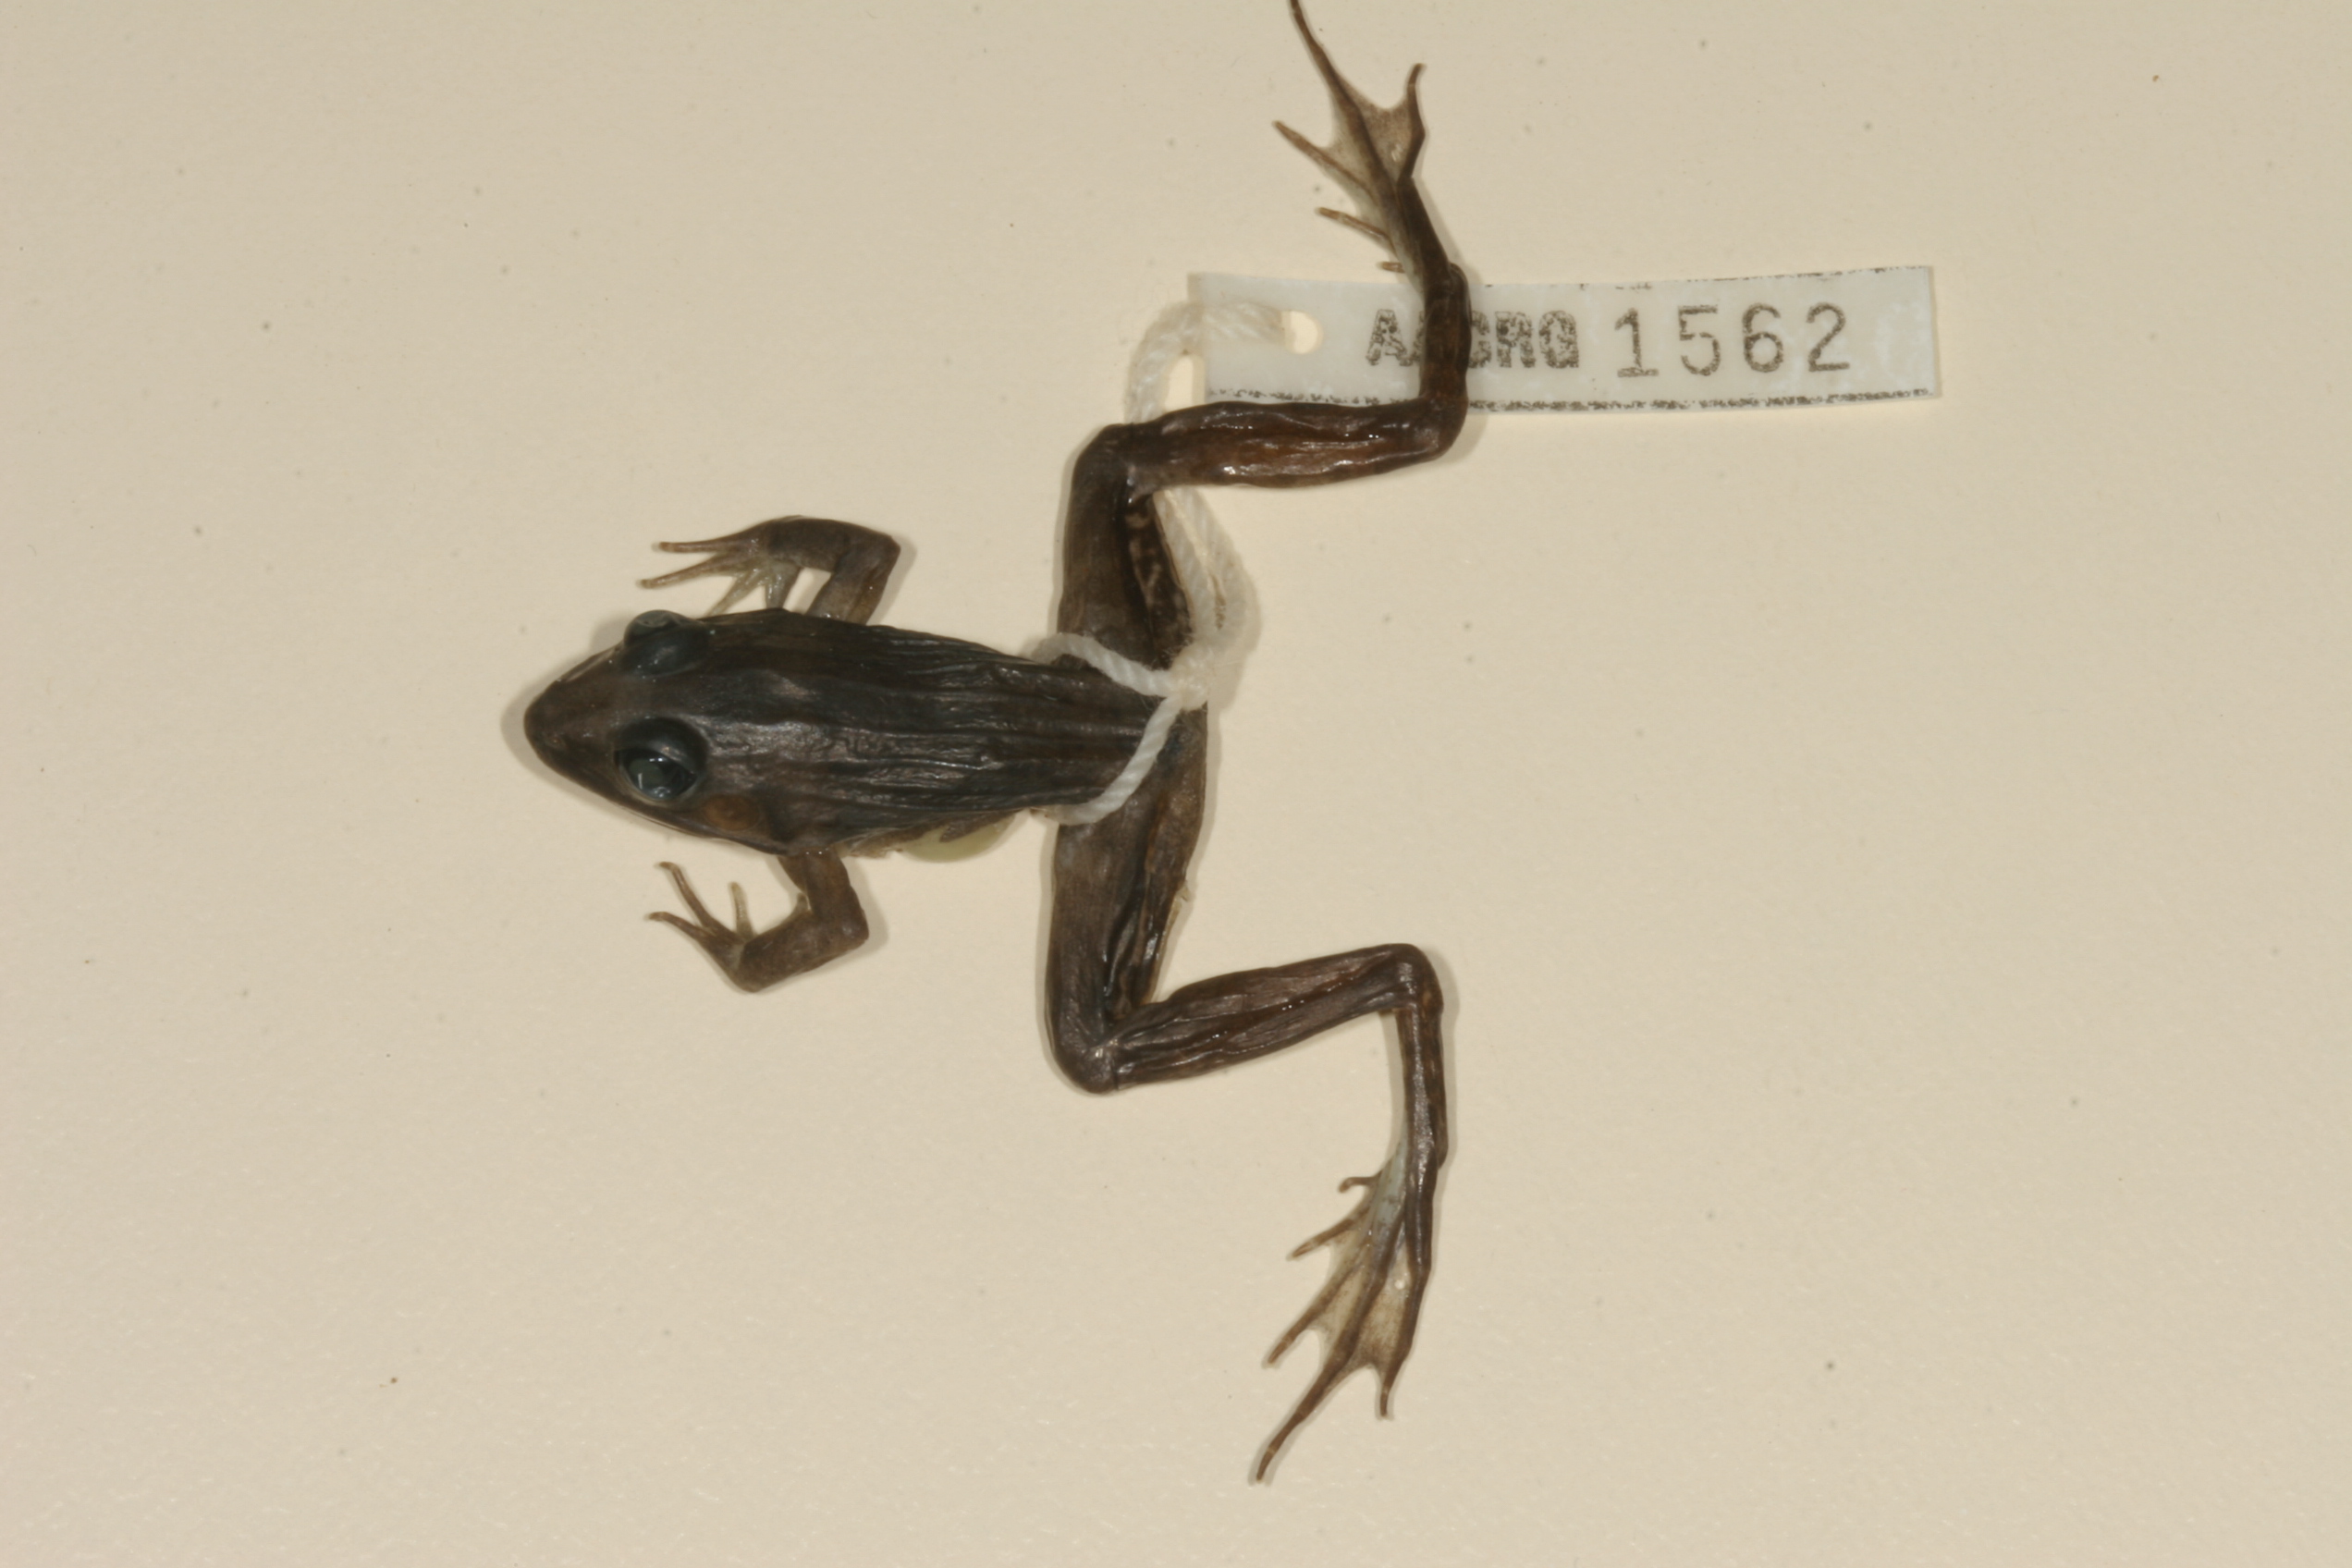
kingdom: Animalia
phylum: Chordata
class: Amphibia
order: Anura
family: Ptychadenidae
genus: Ptychadena
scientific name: Ptychadena mascareniensis
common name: Mascarene grass frog
